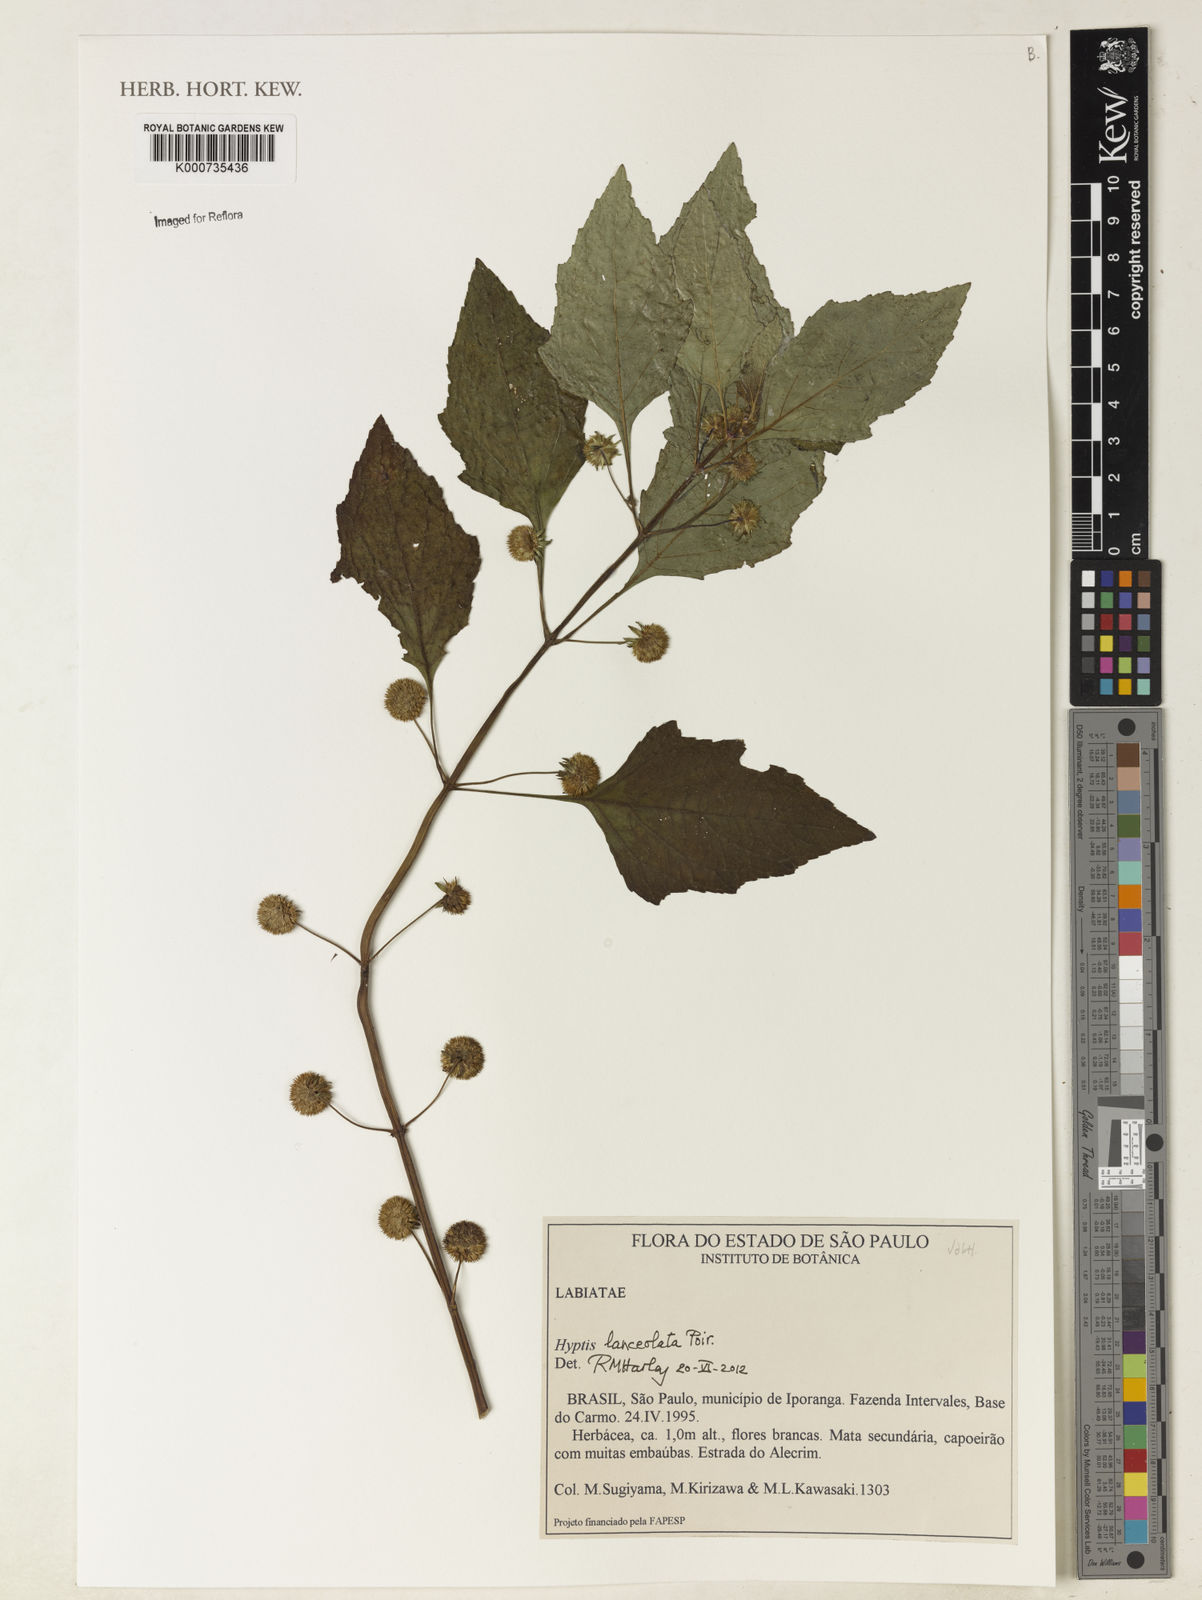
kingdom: Plantae
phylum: Tracheophyta
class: Magnoliopsida
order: Lamiales
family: Lamiaceae
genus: Hyptis
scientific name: Hyptis lanceolata
